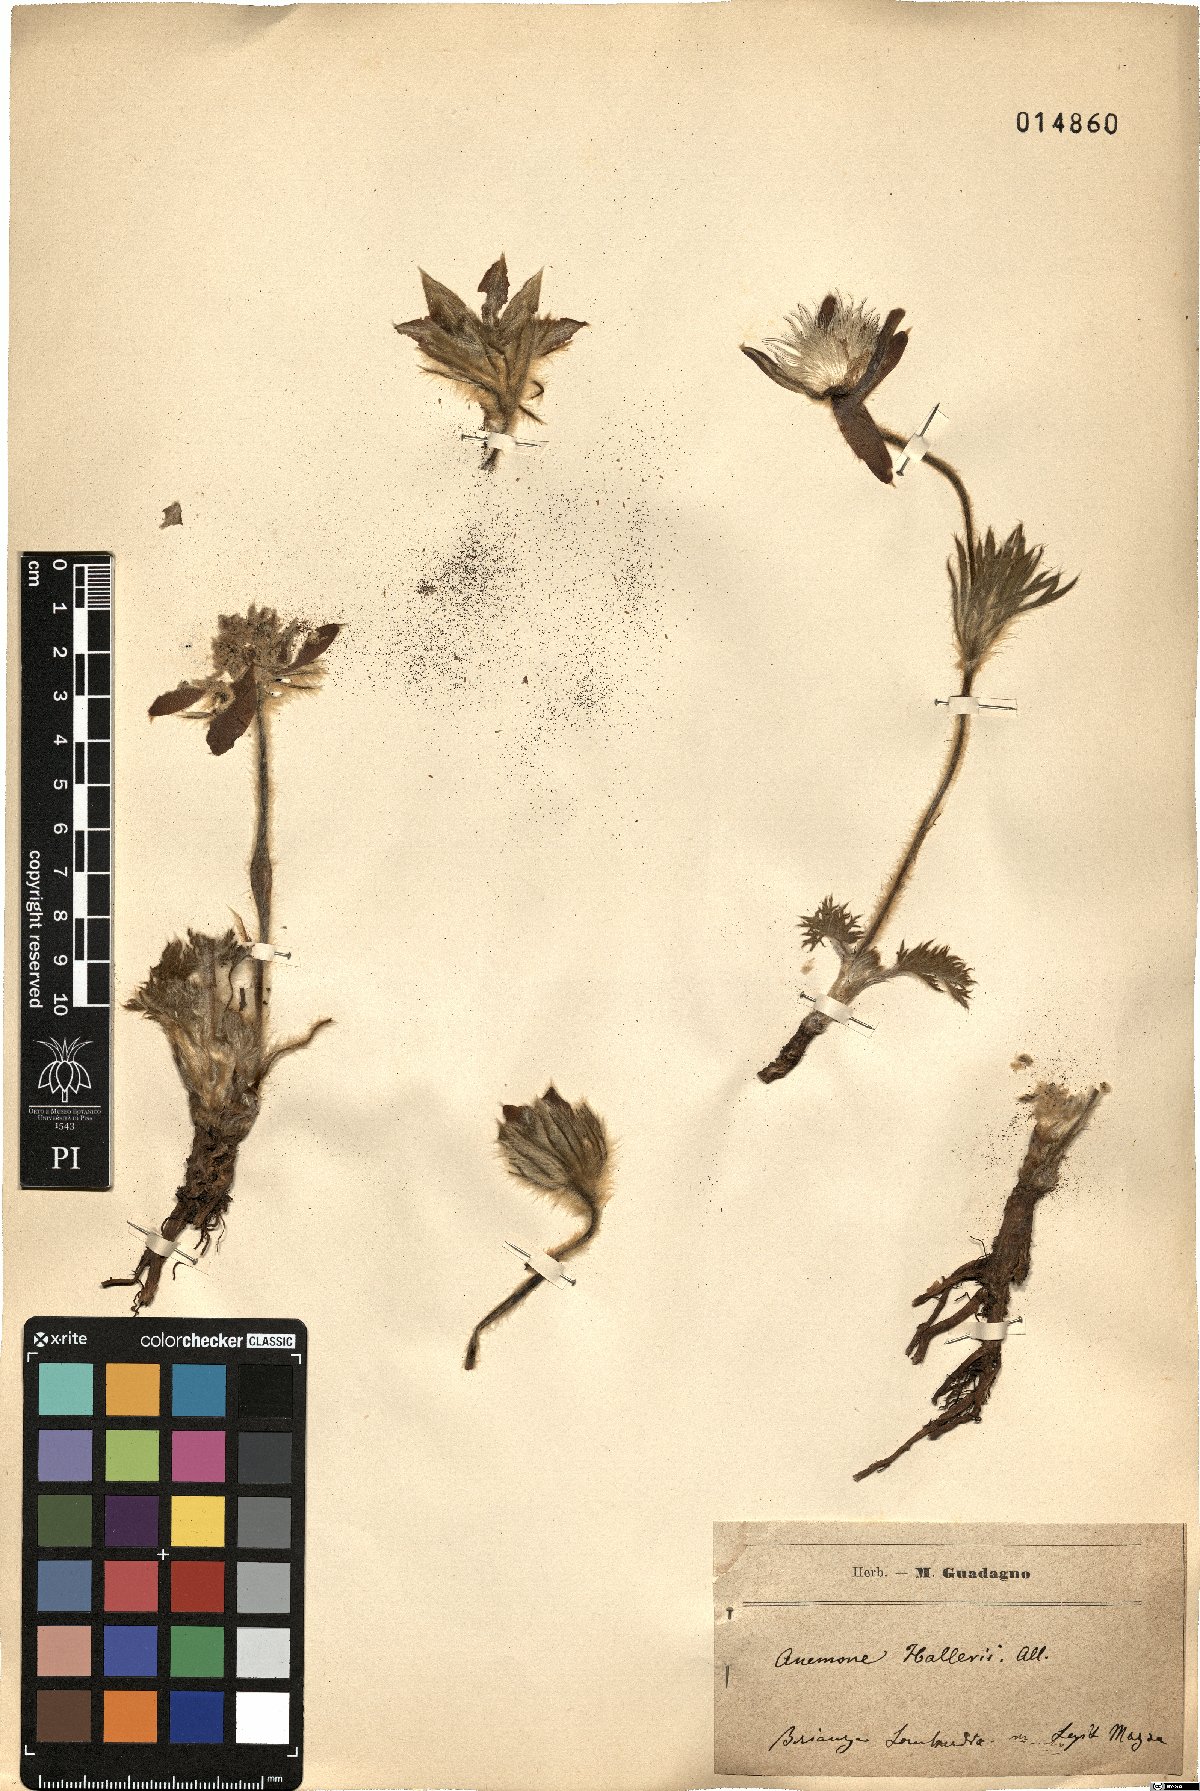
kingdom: Plantae
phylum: Tracheophyta
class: Magnoliopsida
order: Ranunculales
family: Ranunculaceae
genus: Pulsatilla
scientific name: Pulsatilla montana
